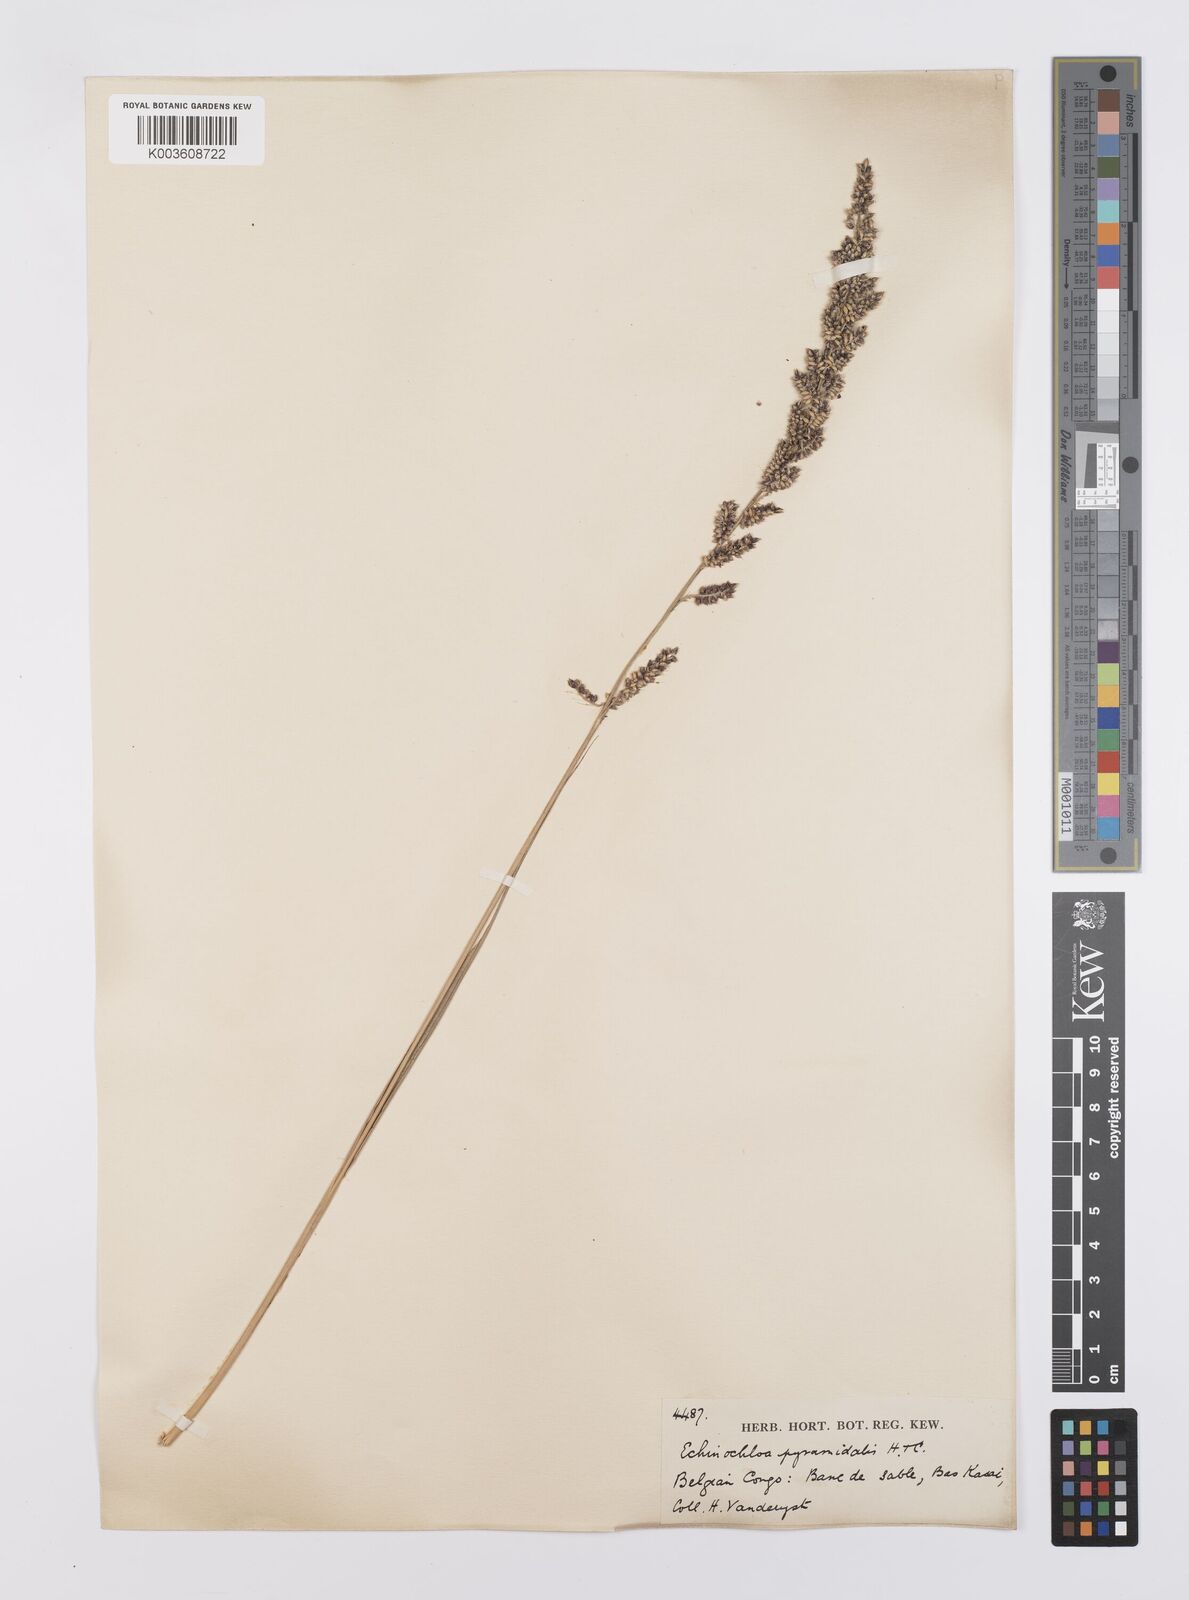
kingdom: Plantae
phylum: Tracheophyta
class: Liliopsida
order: Poales
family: Poaceae
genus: Echinochloa
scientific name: Echinochloa pyramidalis
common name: Antelope grass
